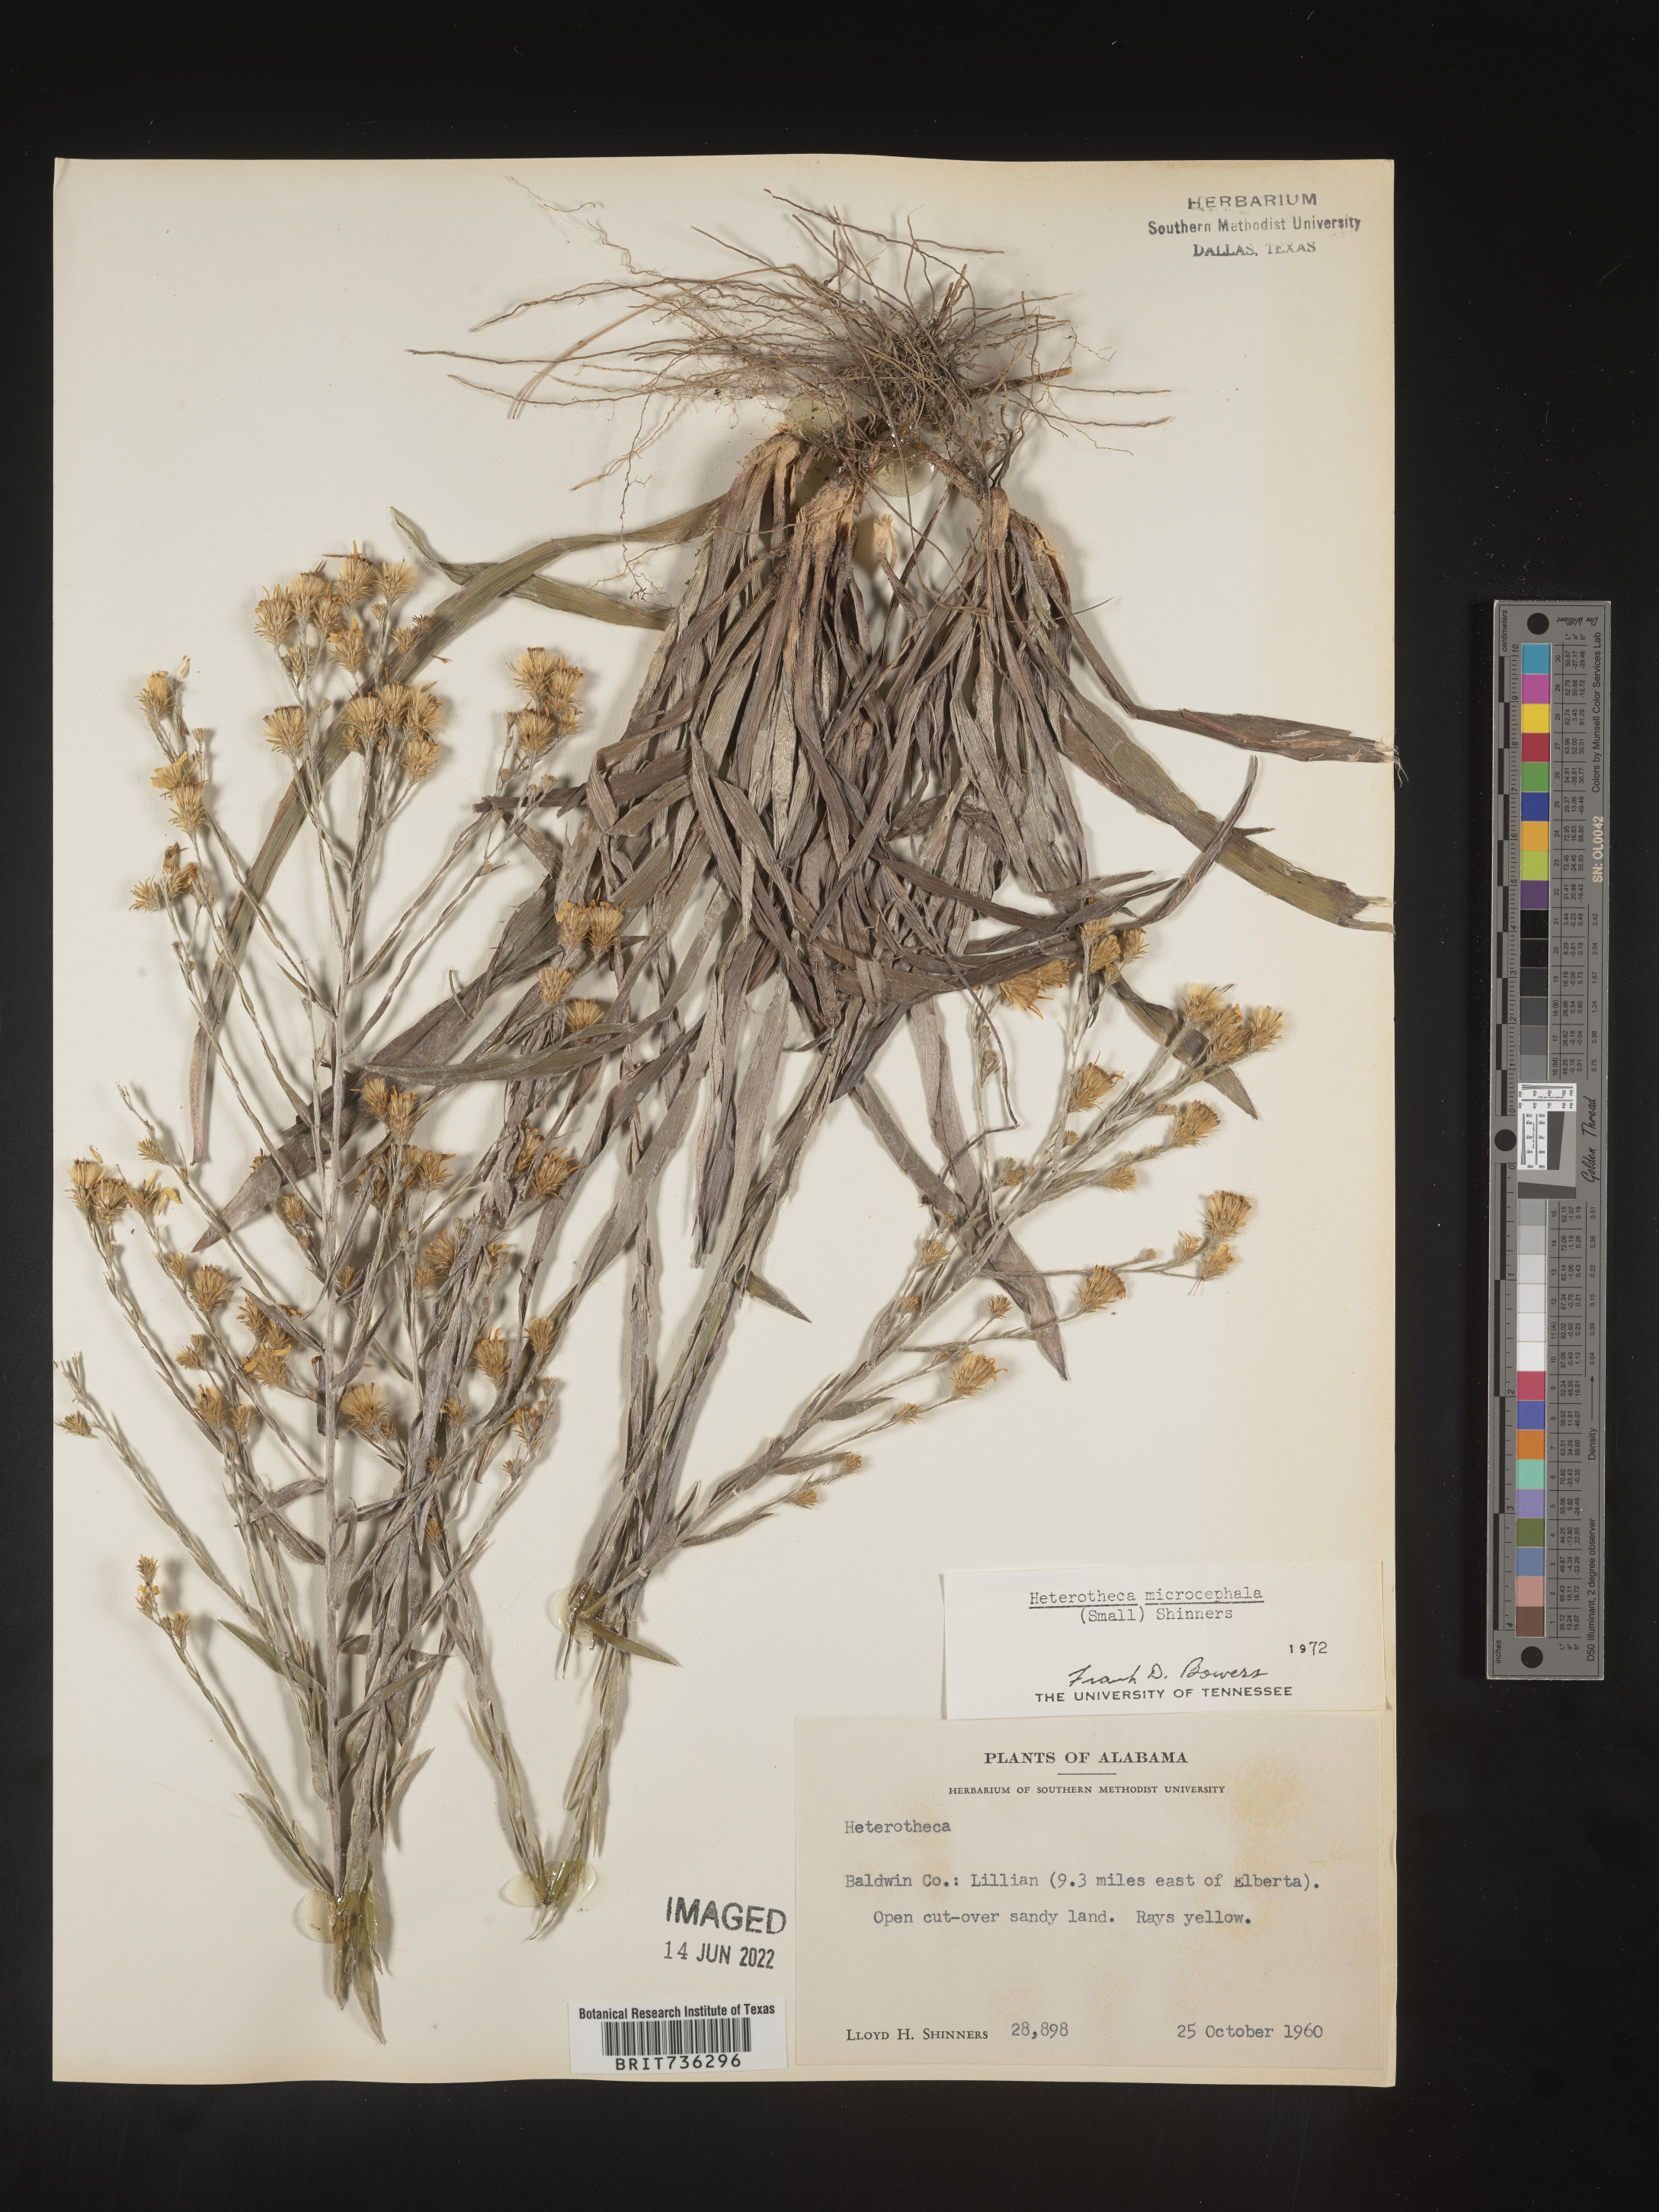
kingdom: Plantae
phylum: Tracheophyta
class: Magnoliopsida
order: Asterales
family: Asteraceae
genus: Pityopsis
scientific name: Pityopsis microcephala
